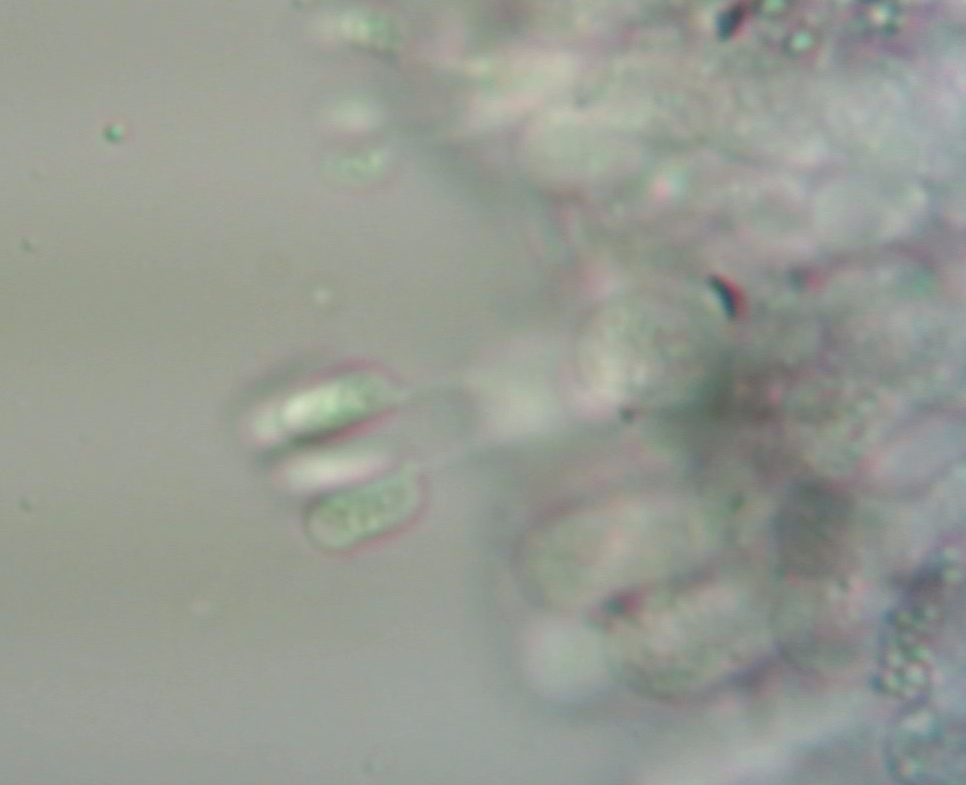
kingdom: Fungi
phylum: Basidiomycota
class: Agaricomycetes
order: Agaricales
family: Hygrophoraceae
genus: Spodocybe
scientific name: Spodocybe collina
